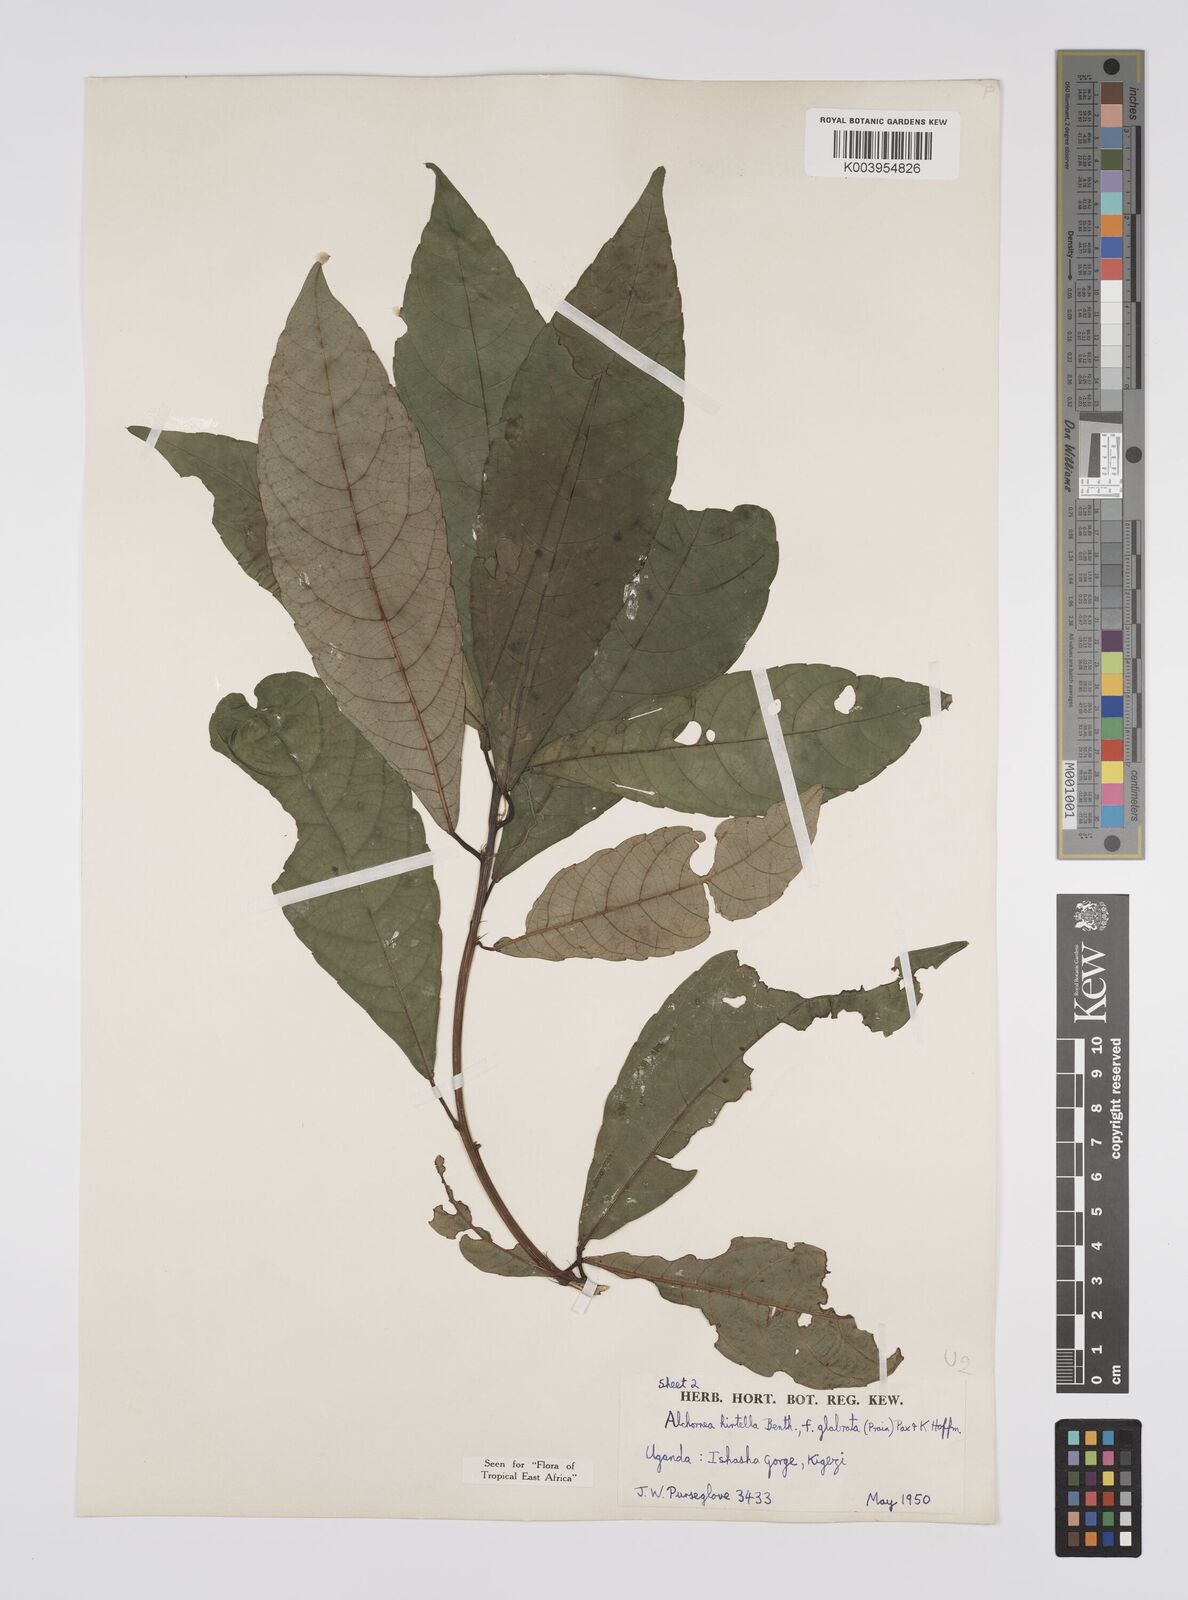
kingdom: Plantae
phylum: Tracheophyta
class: Magnoliopsida
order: Malpighiales
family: Euphorbiaceae
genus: Alchornea
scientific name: Alchornea hirtella
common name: Forest bead-string
